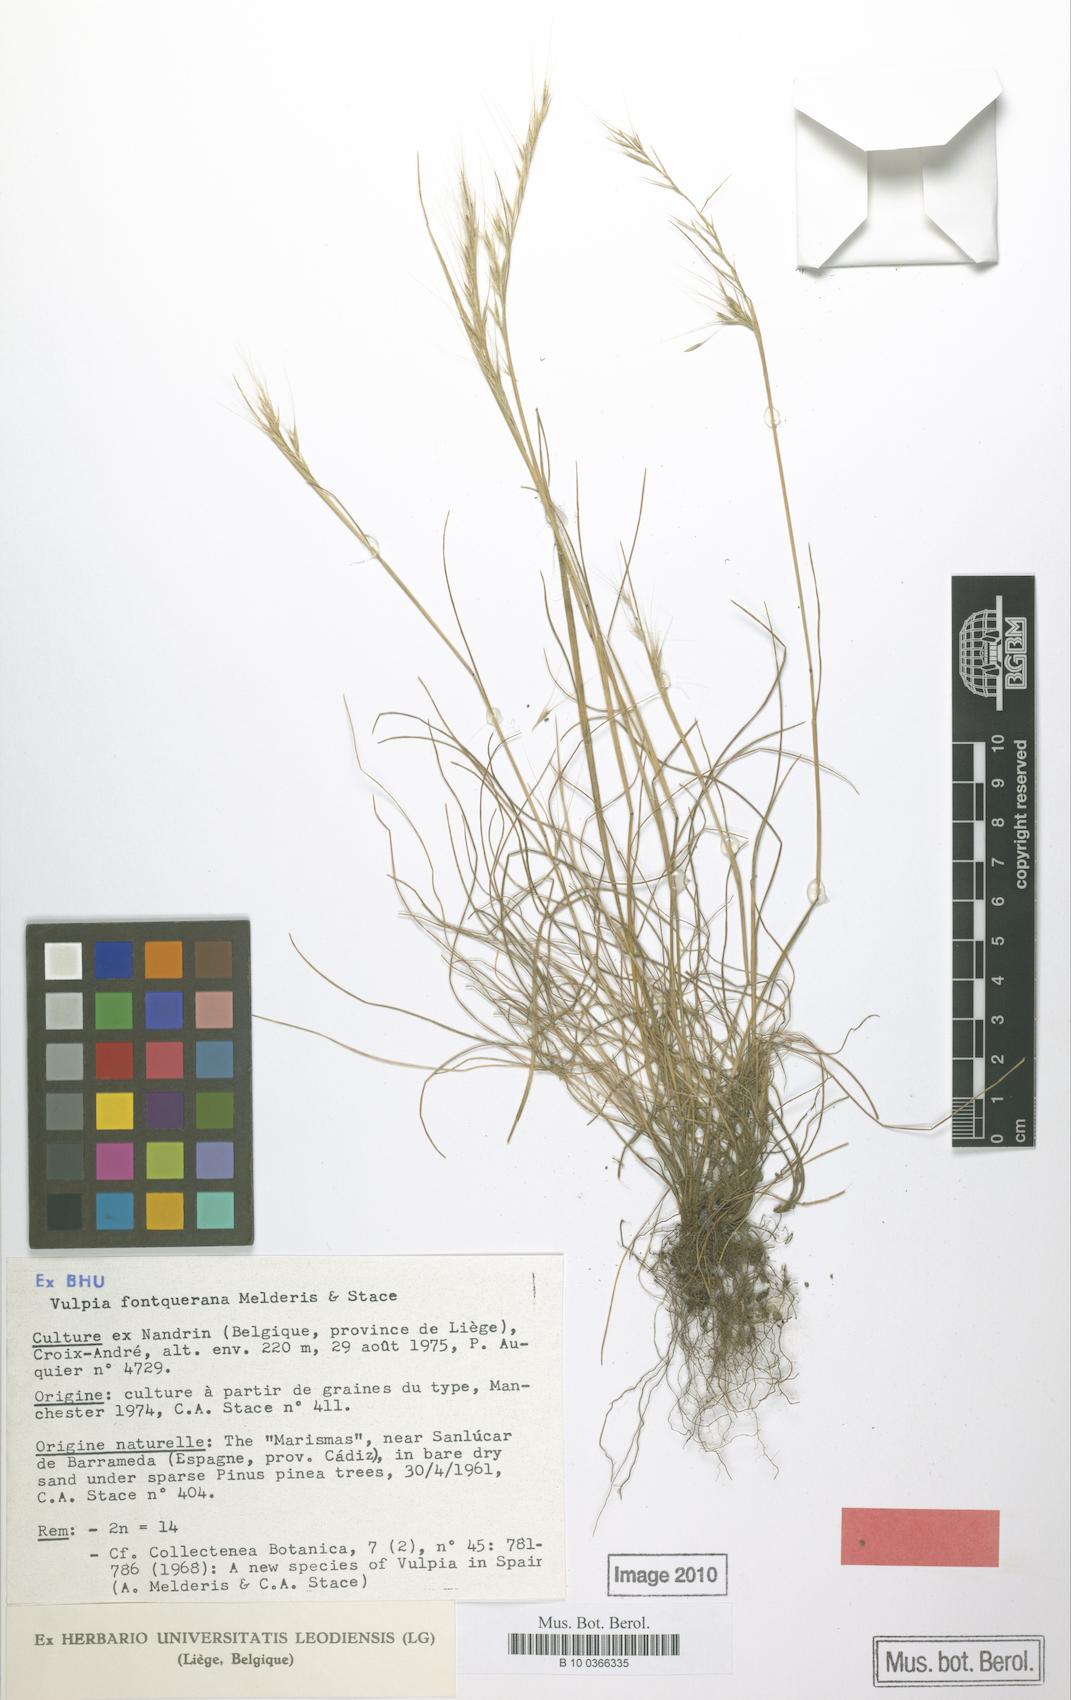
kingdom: Plantae
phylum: Tracheophyta
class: Liliopsida
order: Poales
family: Poaceae
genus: Festuca
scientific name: Festuca Vulpia fontquerana
